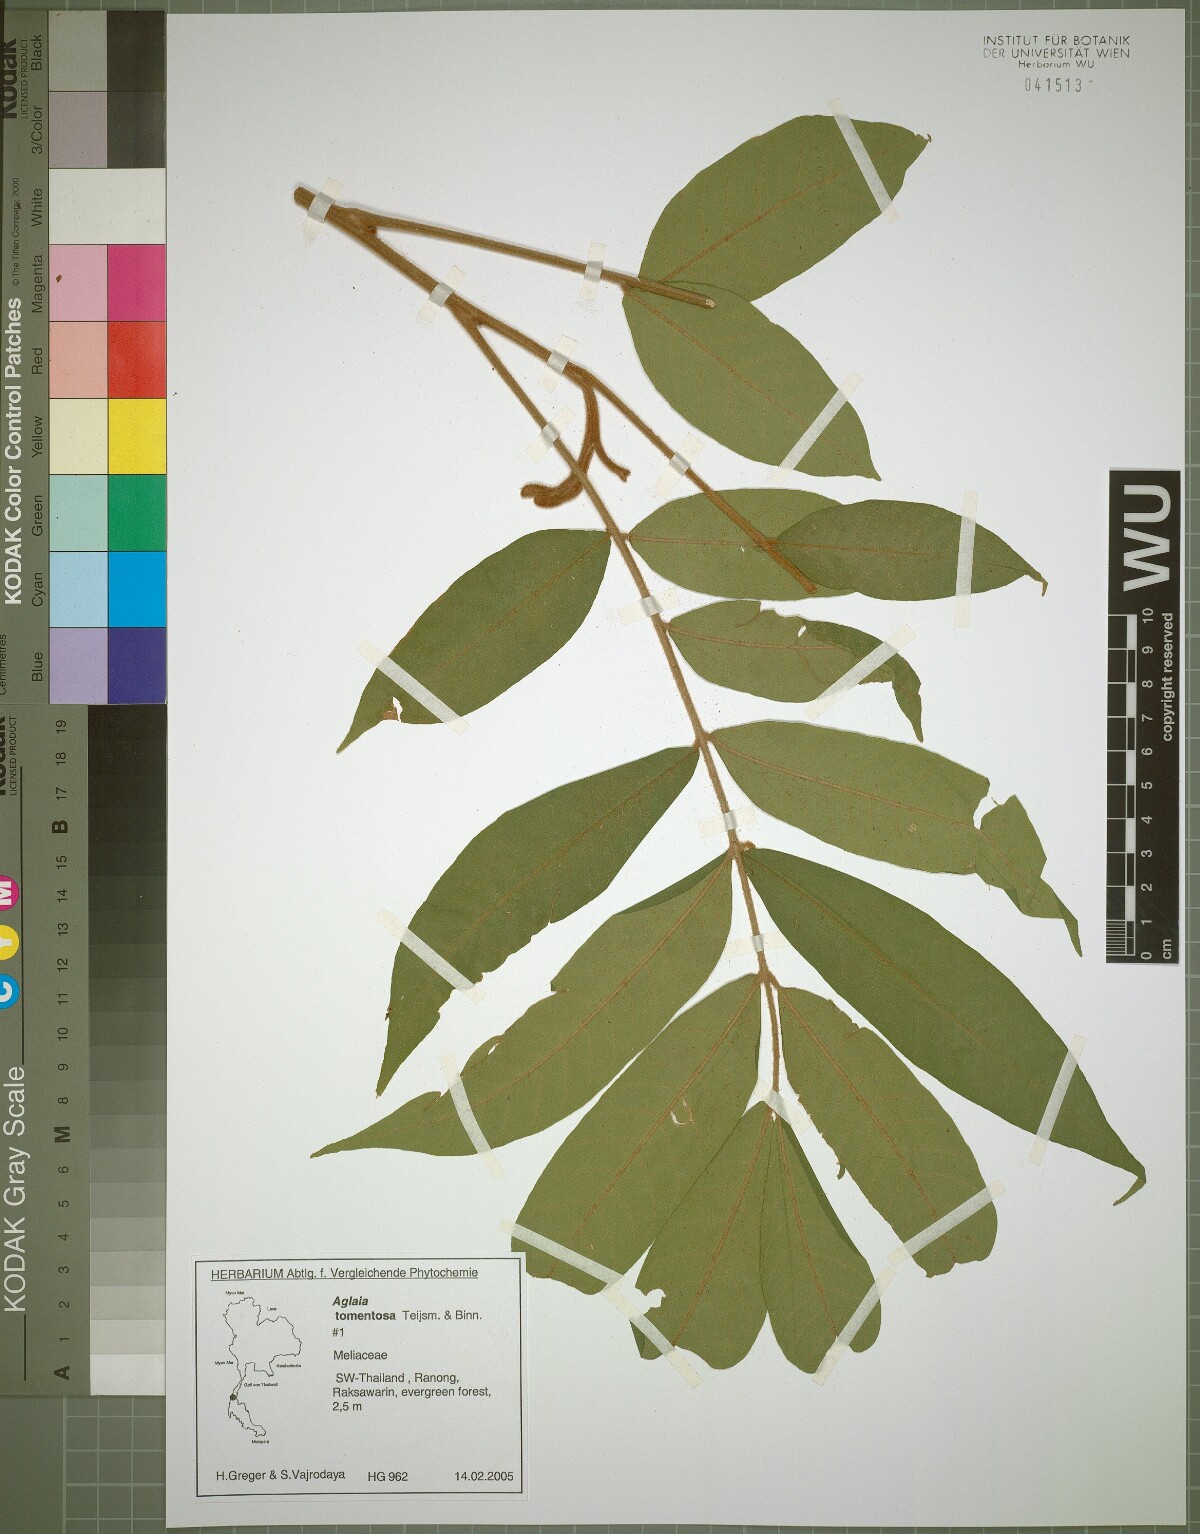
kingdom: Plantae
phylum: Tracheophyta
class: Magnoliopsida
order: Sapindales
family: Meliaceae
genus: Aglaia
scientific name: Aglaia tomentosa
